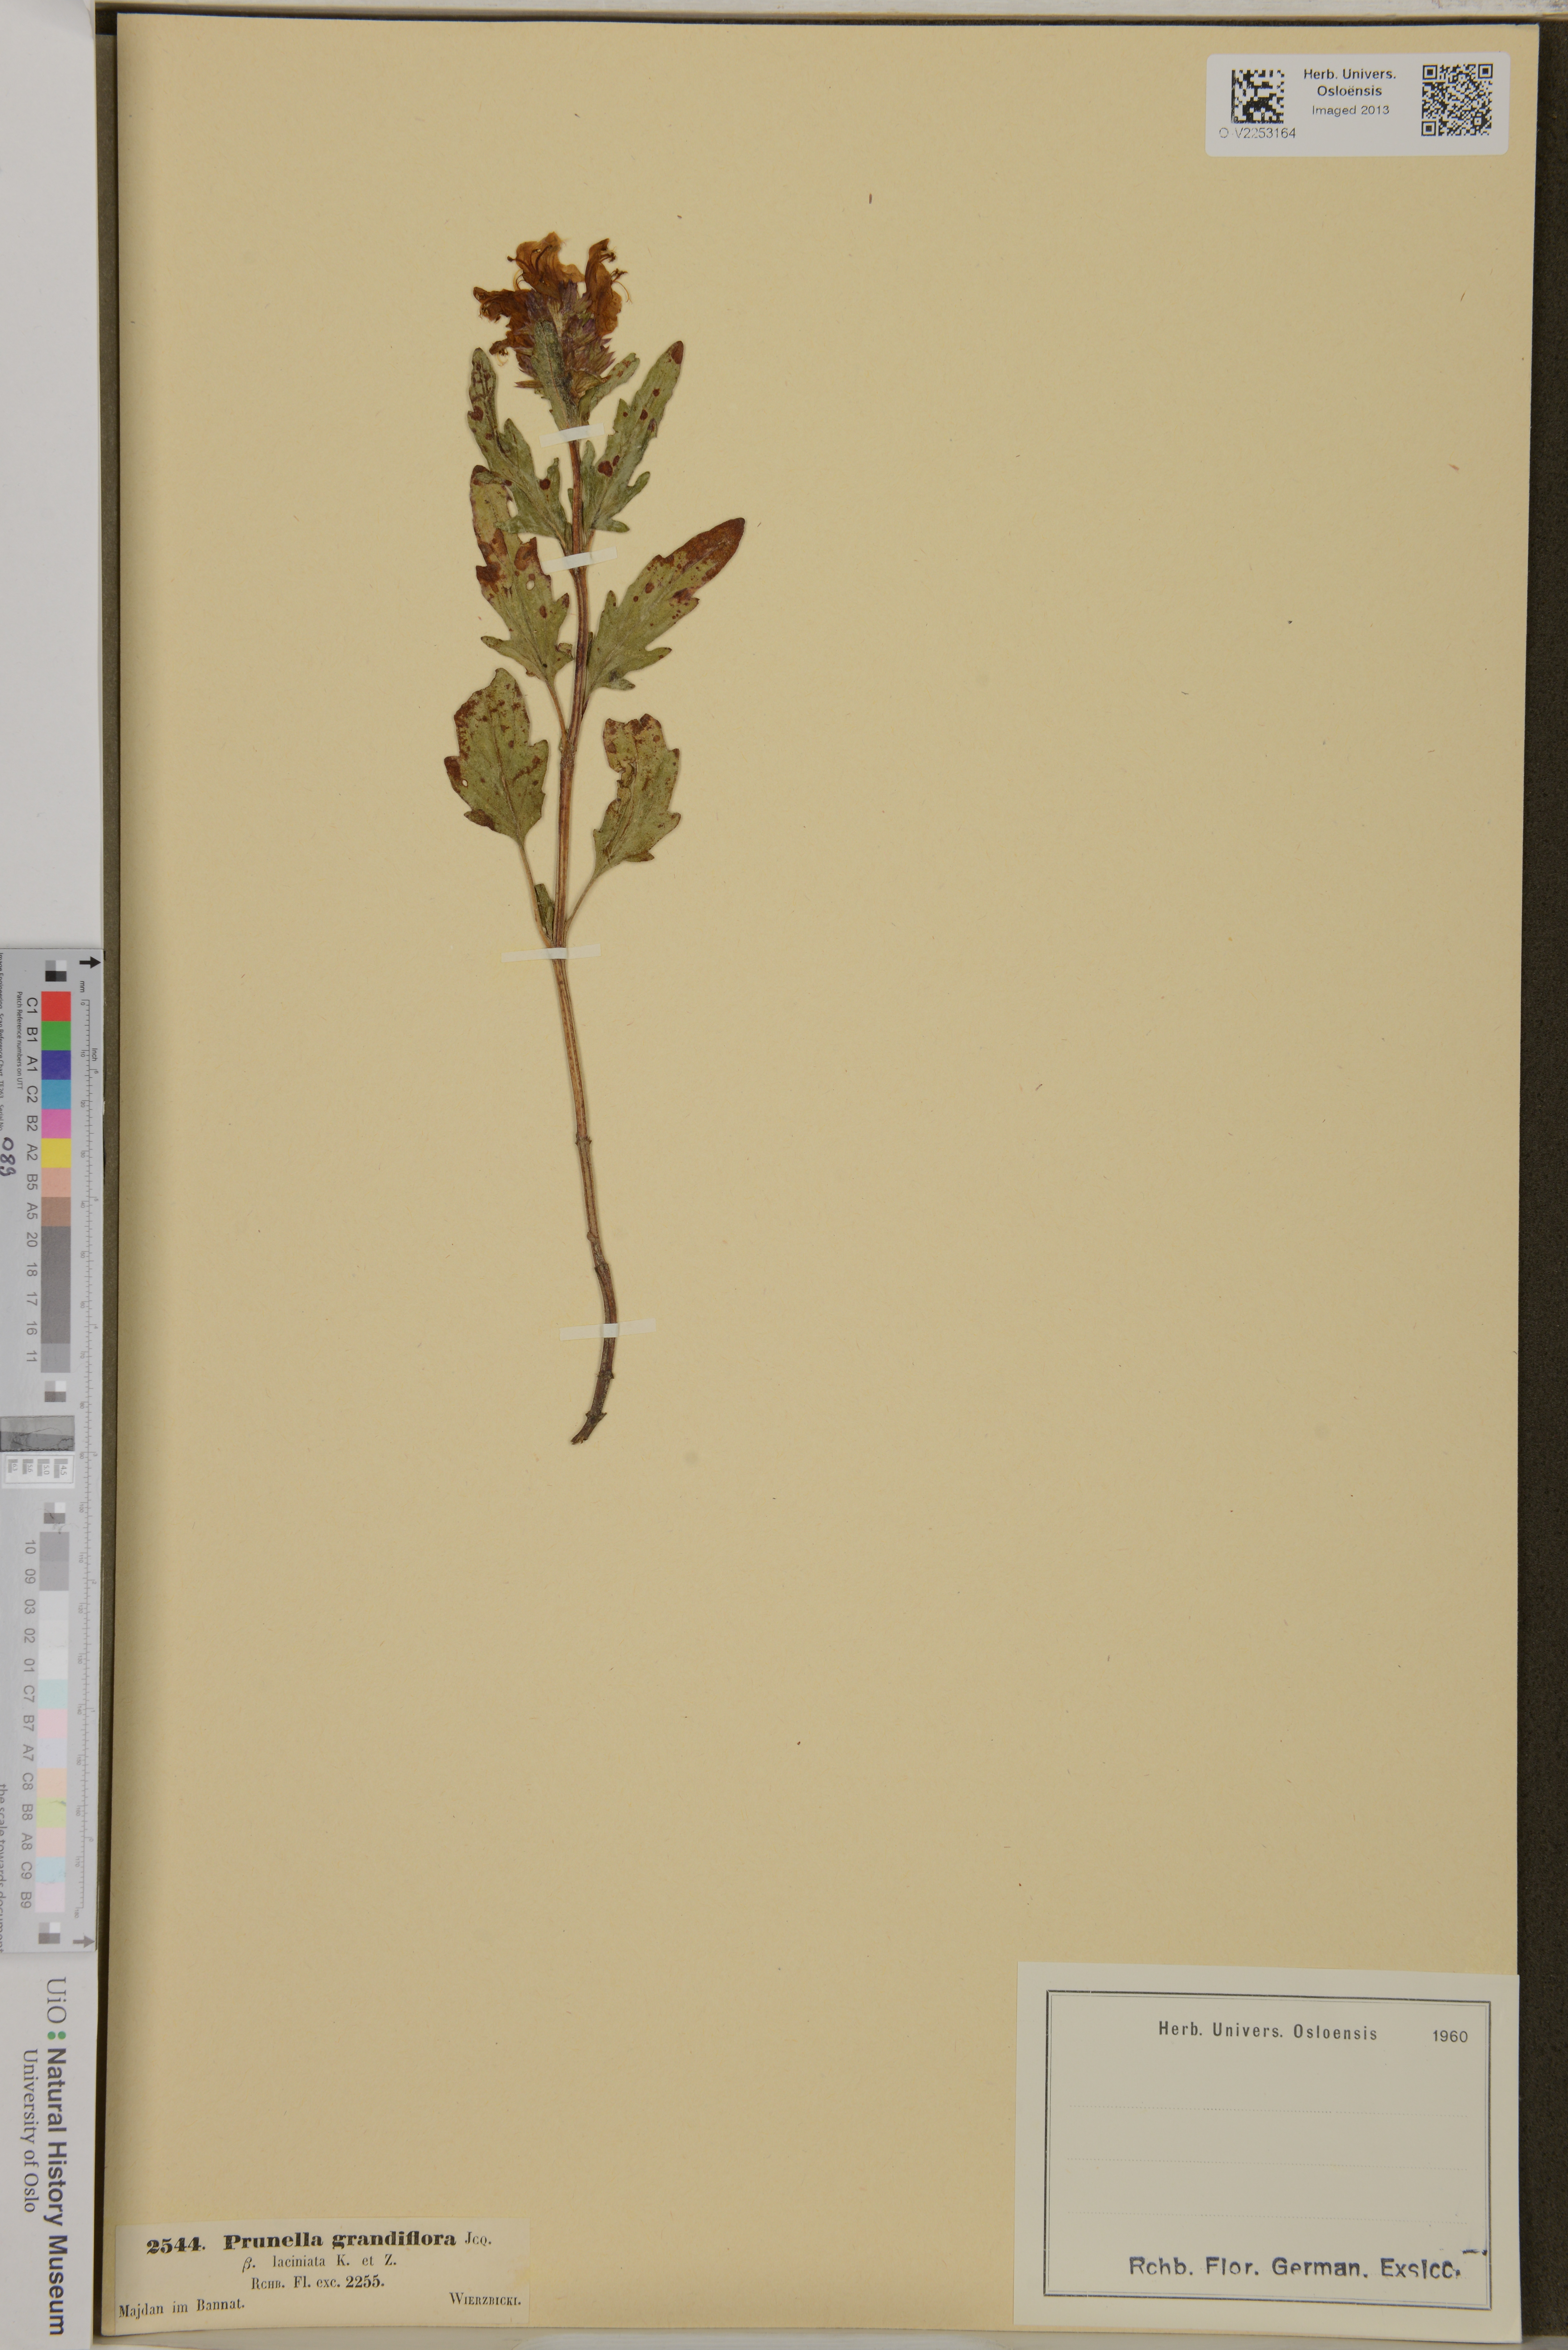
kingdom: Plantae
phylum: Tracheophyta
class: Magnoliopsida
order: Lamiales
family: Lamiaceae
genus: Prunella
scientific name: Prunella grandiflora
